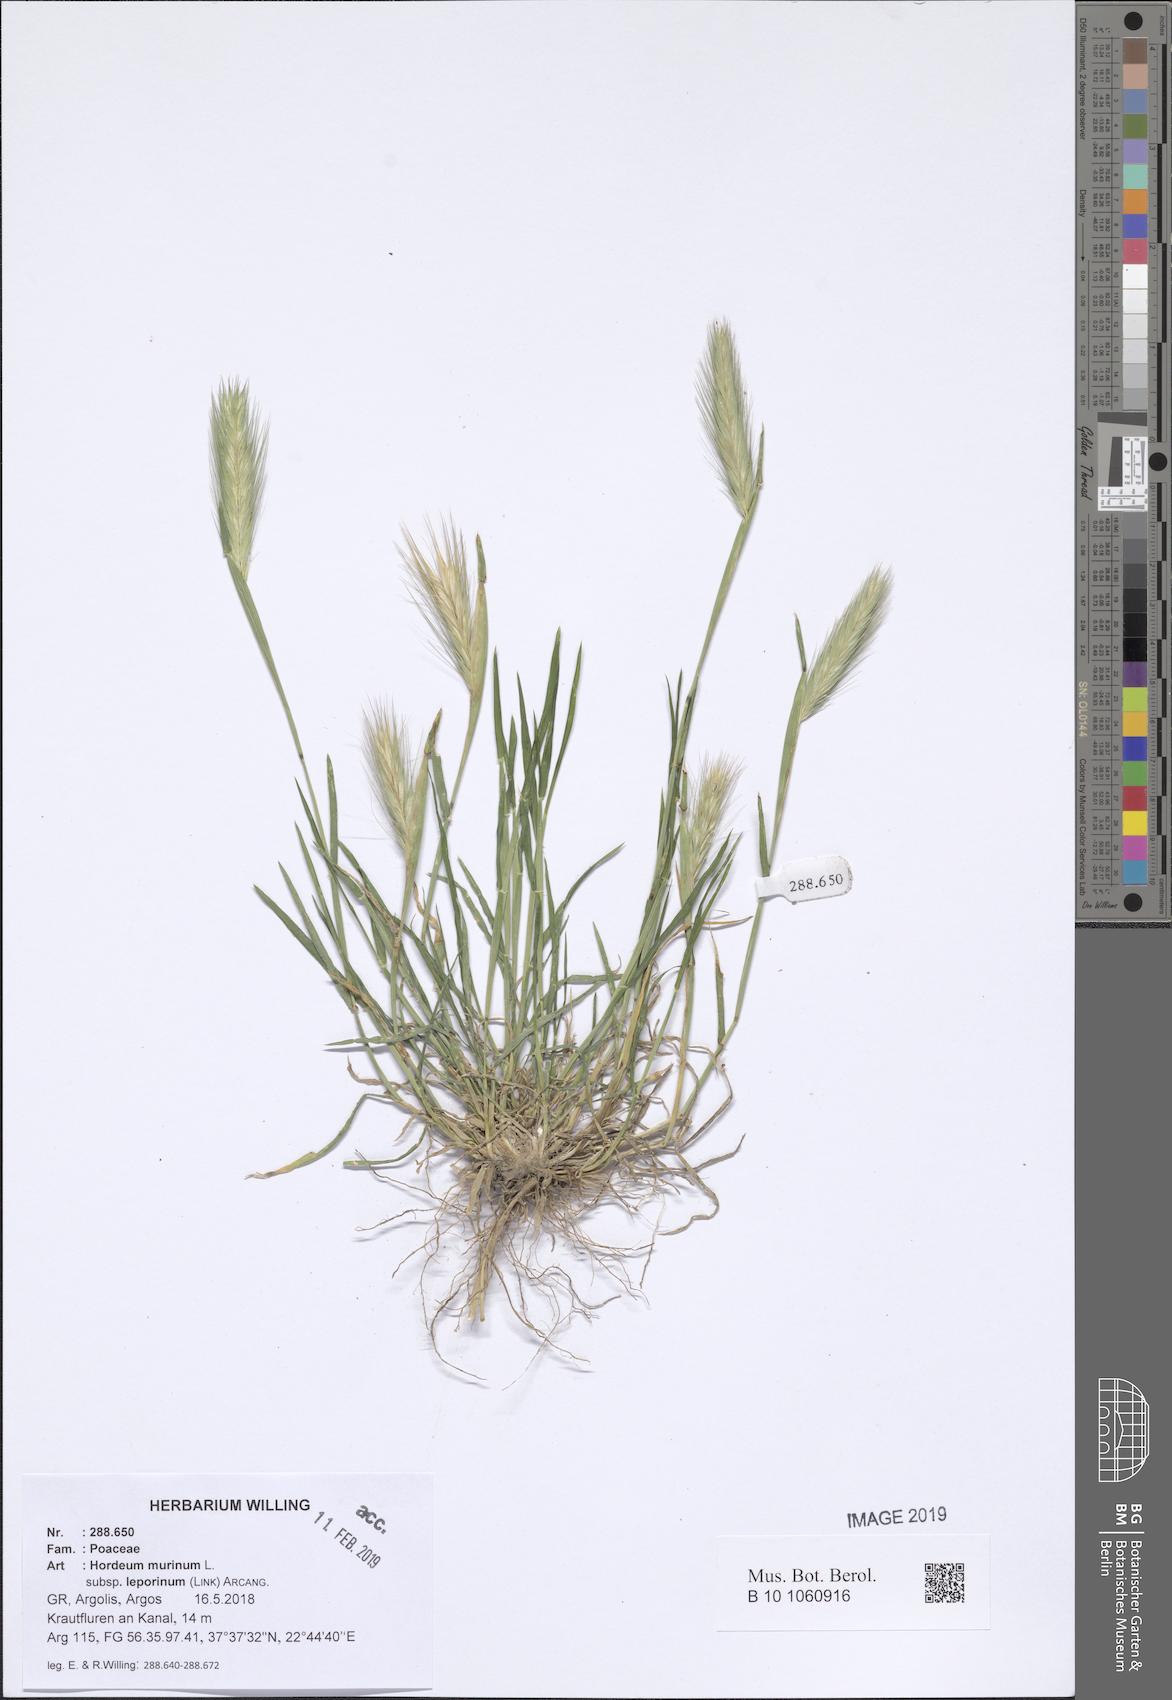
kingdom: Plantae
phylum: Tracheophyta
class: Liliopsida
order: Poales
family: Poaceae
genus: Hordeum
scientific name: Hordeum murinum
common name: Wall barley
